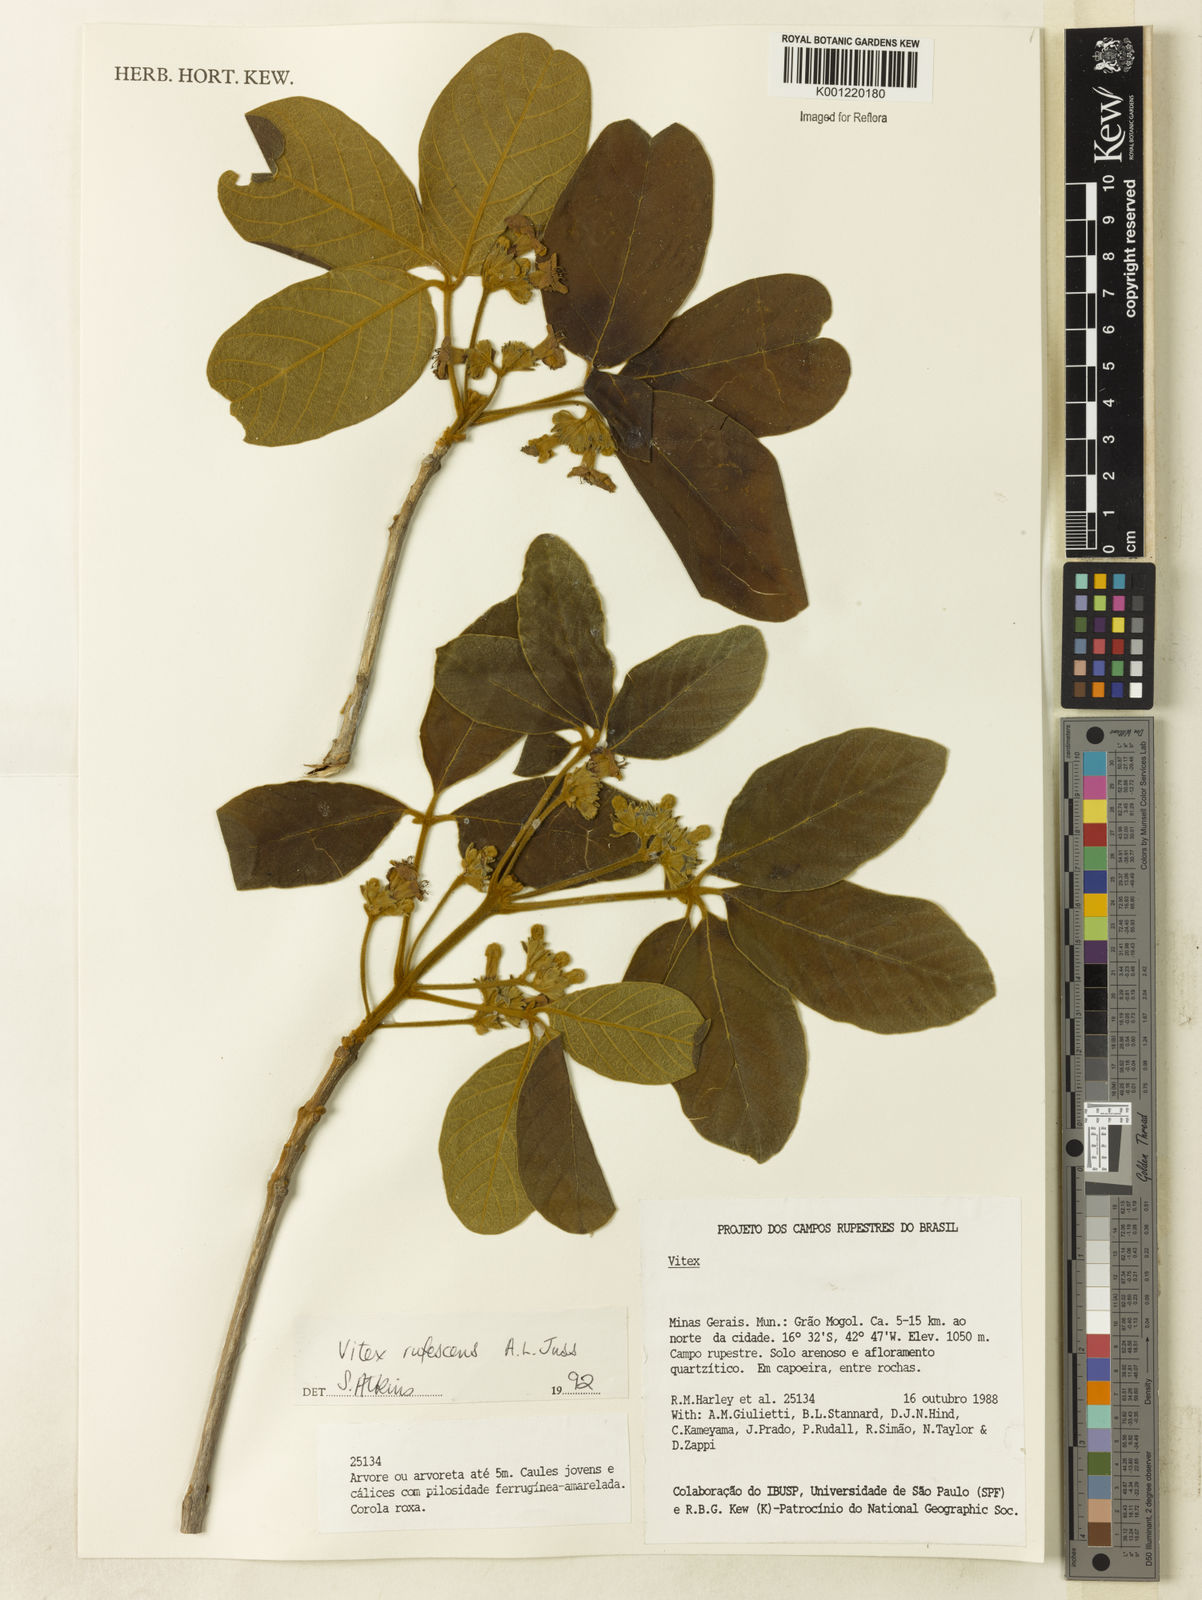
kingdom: Plantae
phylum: Tracheophyta
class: Magnoliopsida
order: Lamiales
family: Lamiaceae
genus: Vitex
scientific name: Vitex rufescens
